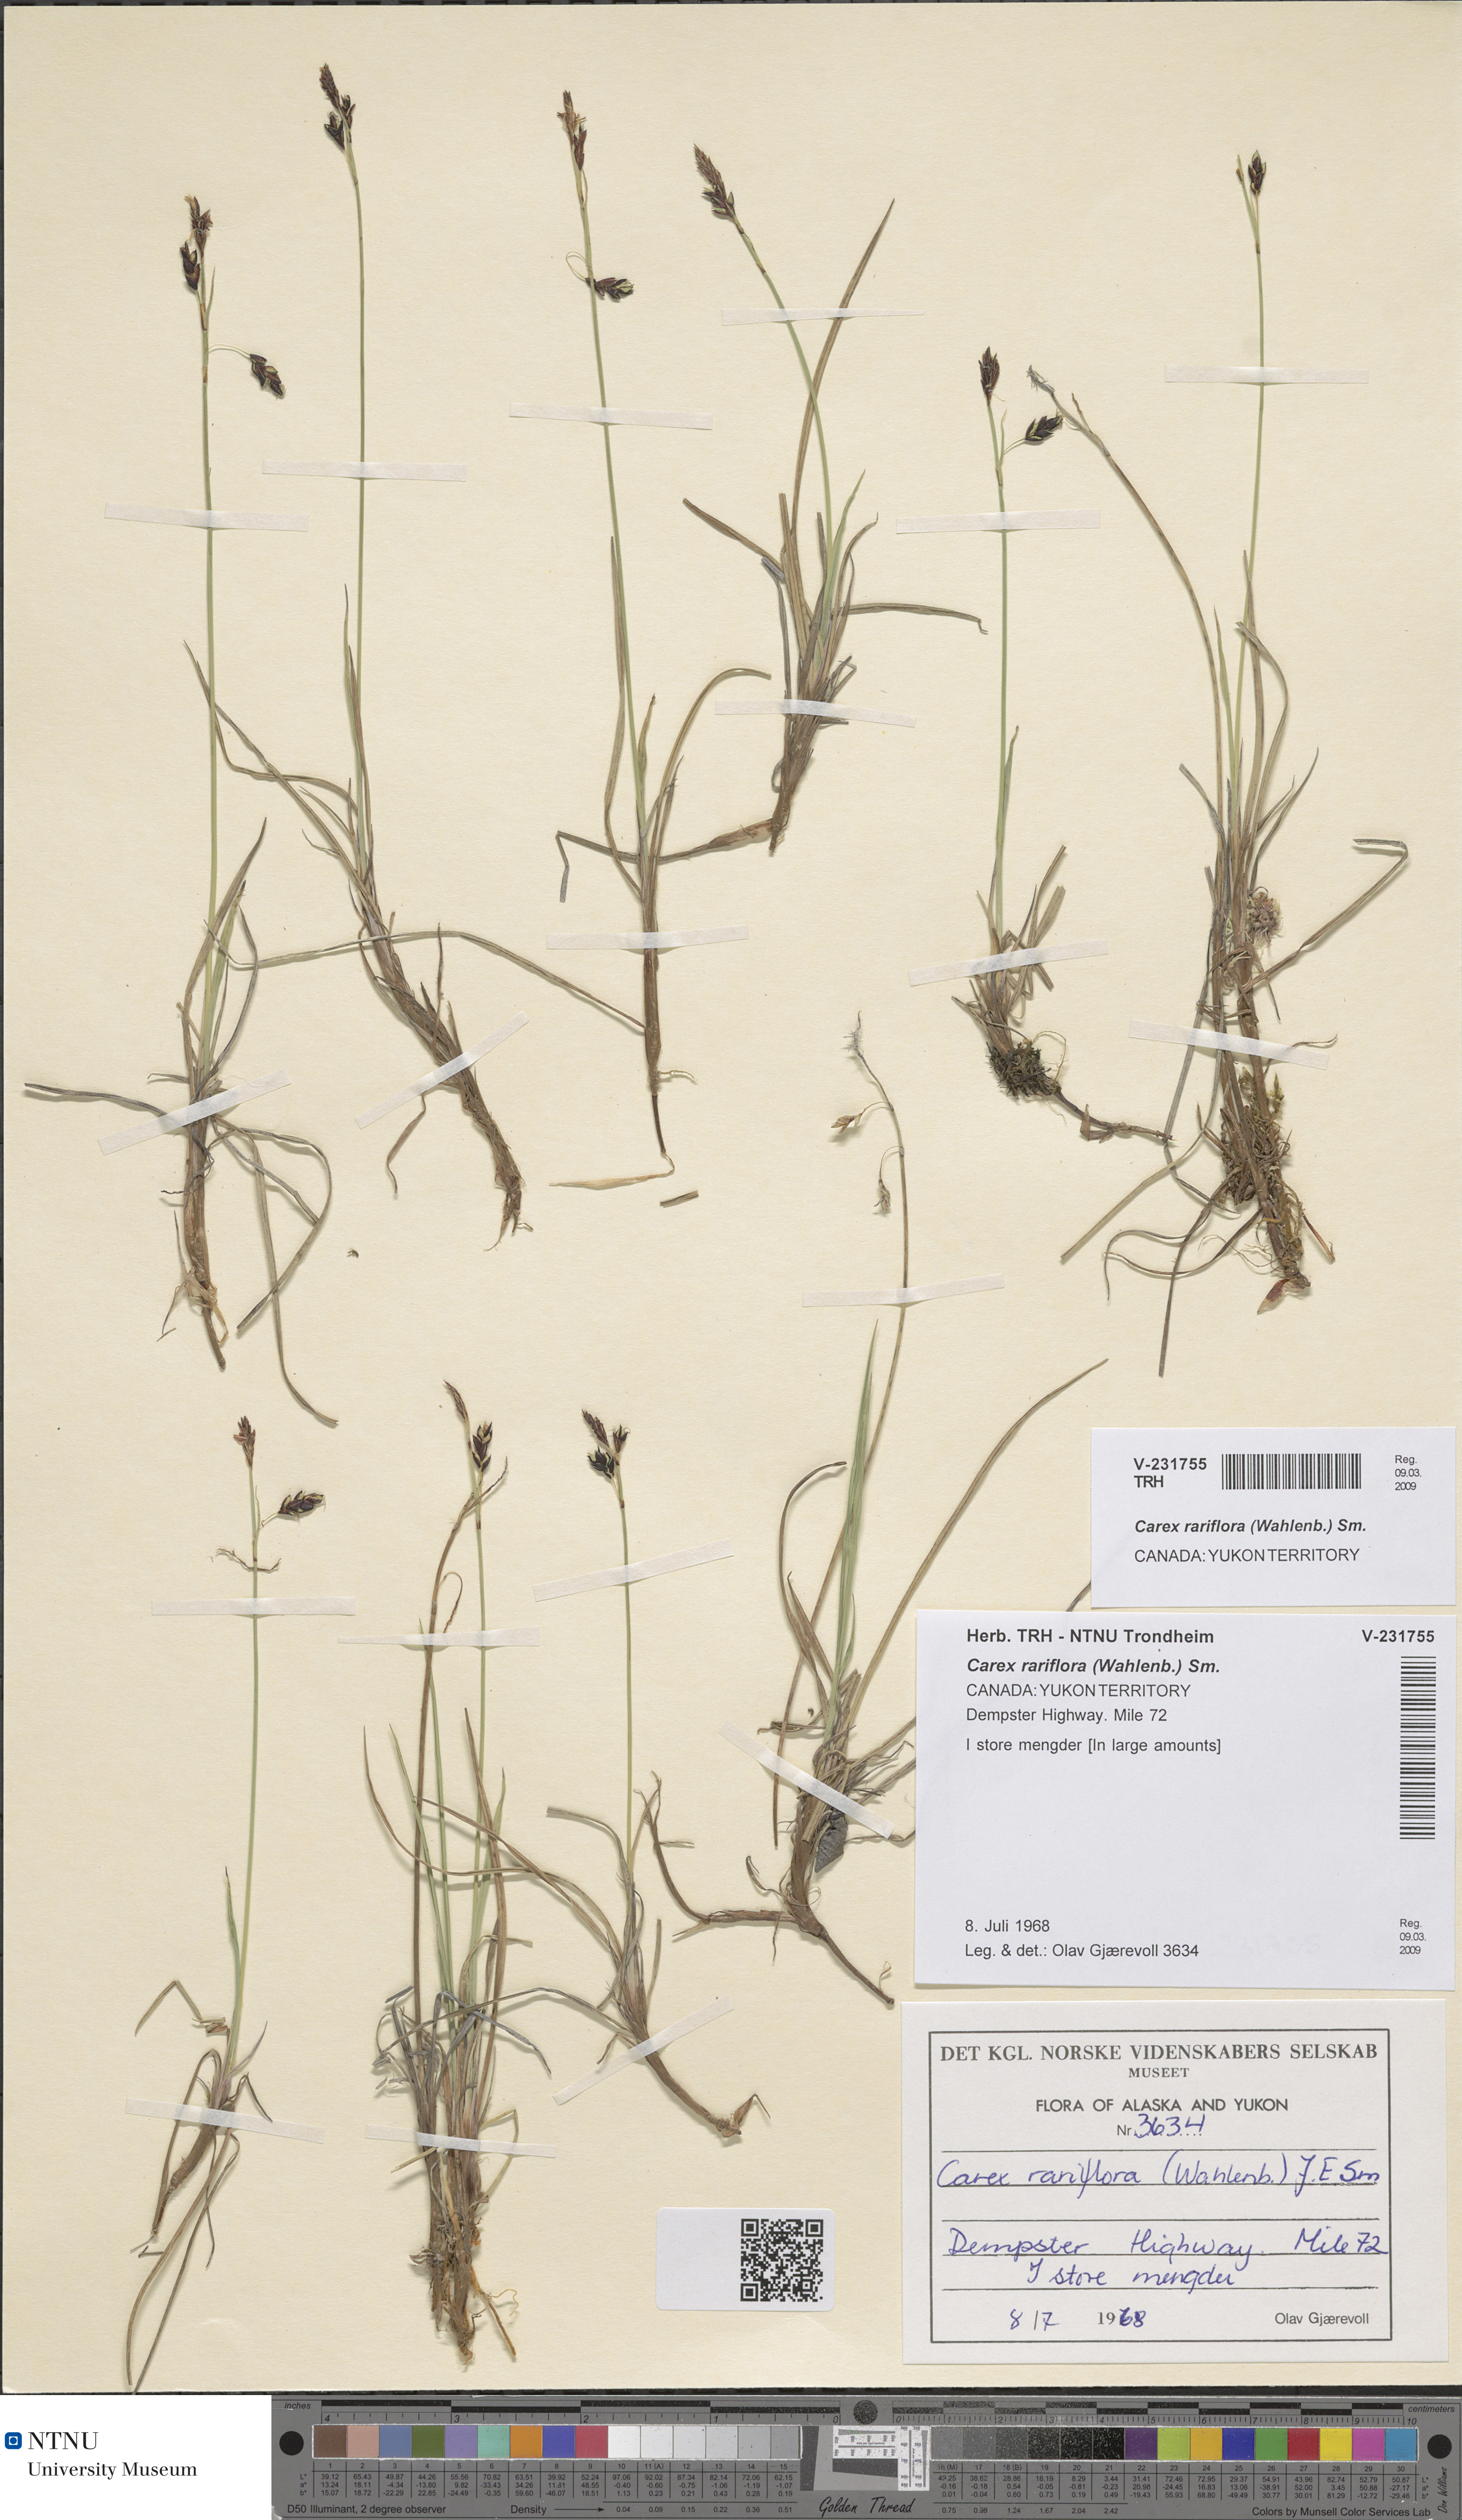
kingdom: Plantae
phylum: Tracheophyta
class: Liliopsida
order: Poales
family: Cyperaceae
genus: Carex
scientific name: Carex rariflora
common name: Loose-flowered alpine sedge
